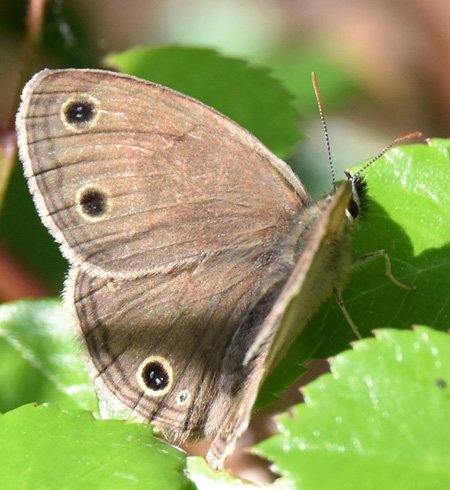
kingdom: Animalia
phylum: Arthropoda
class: Insecta
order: Lepidoptera
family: Nymphalidae
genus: Euptychia
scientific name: Euptychia cymela
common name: Little Wood Satyr
